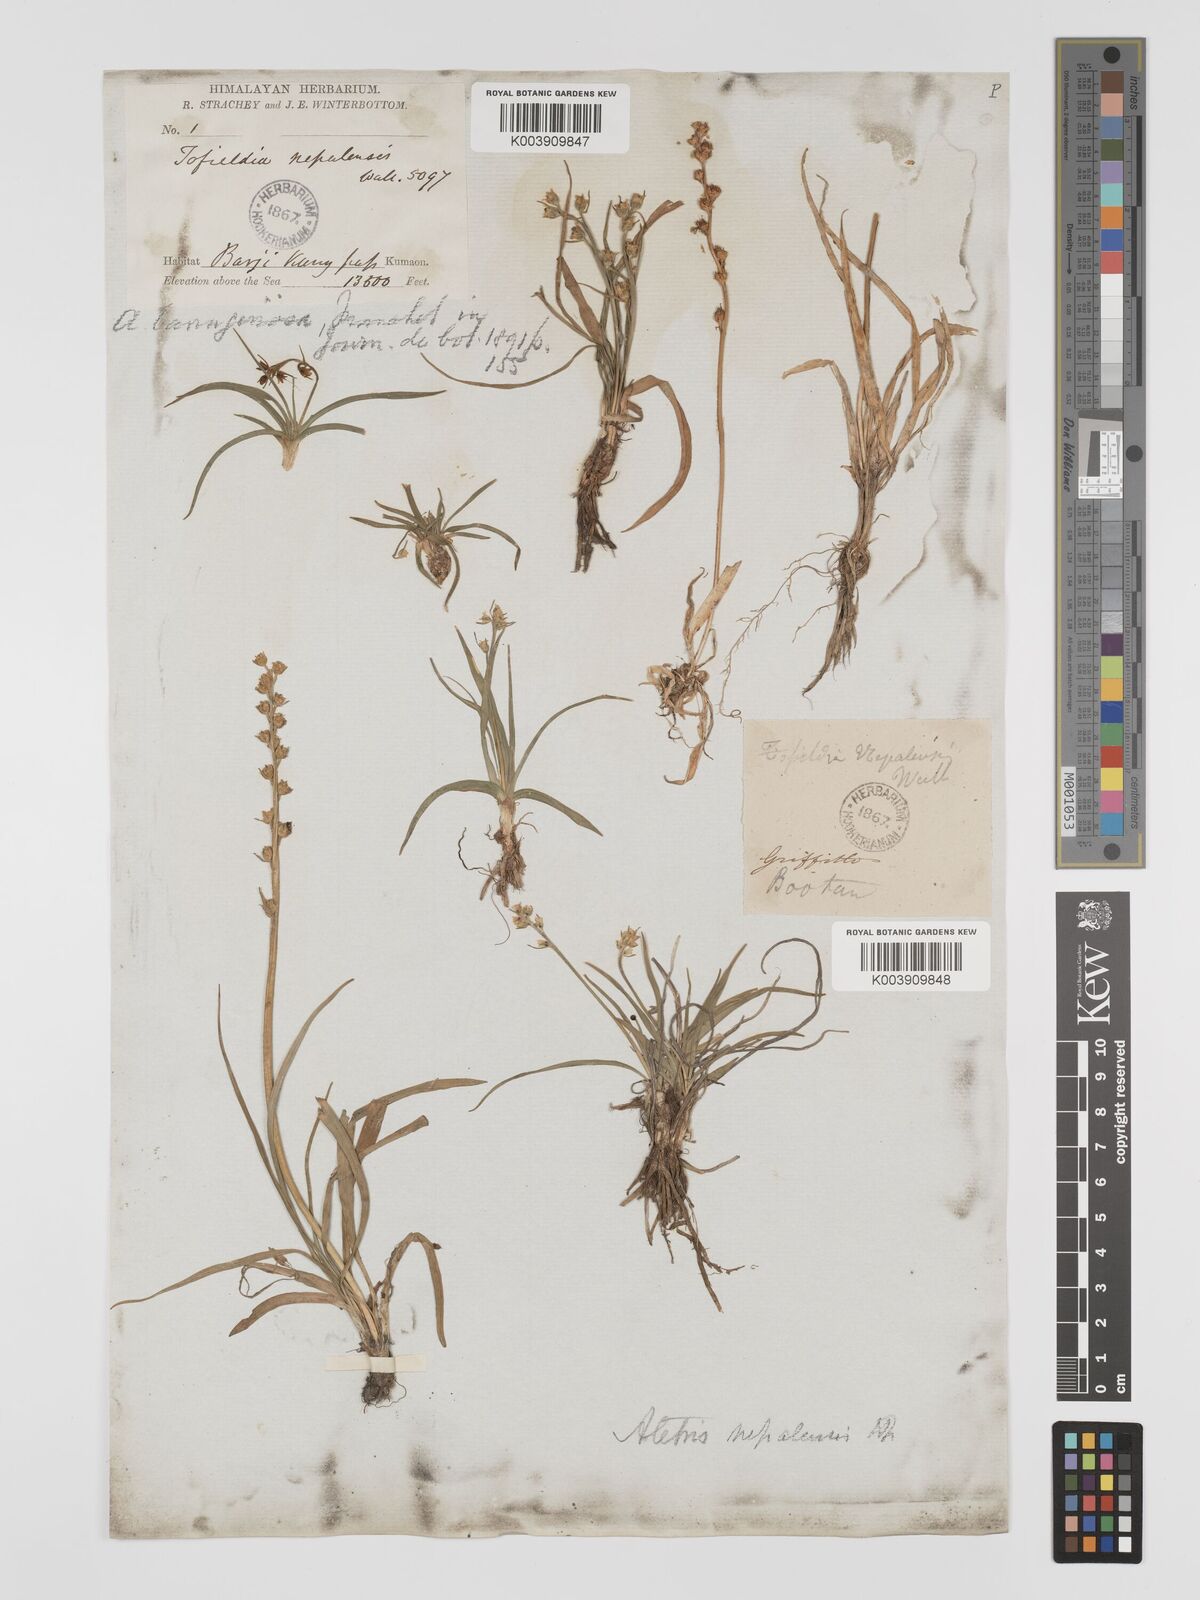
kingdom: Plantae
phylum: Tracheophyta
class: Liliopsida
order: Dioscoreales
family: Nartheciaceae
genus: Aletris
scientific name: Aletris pauciflora
